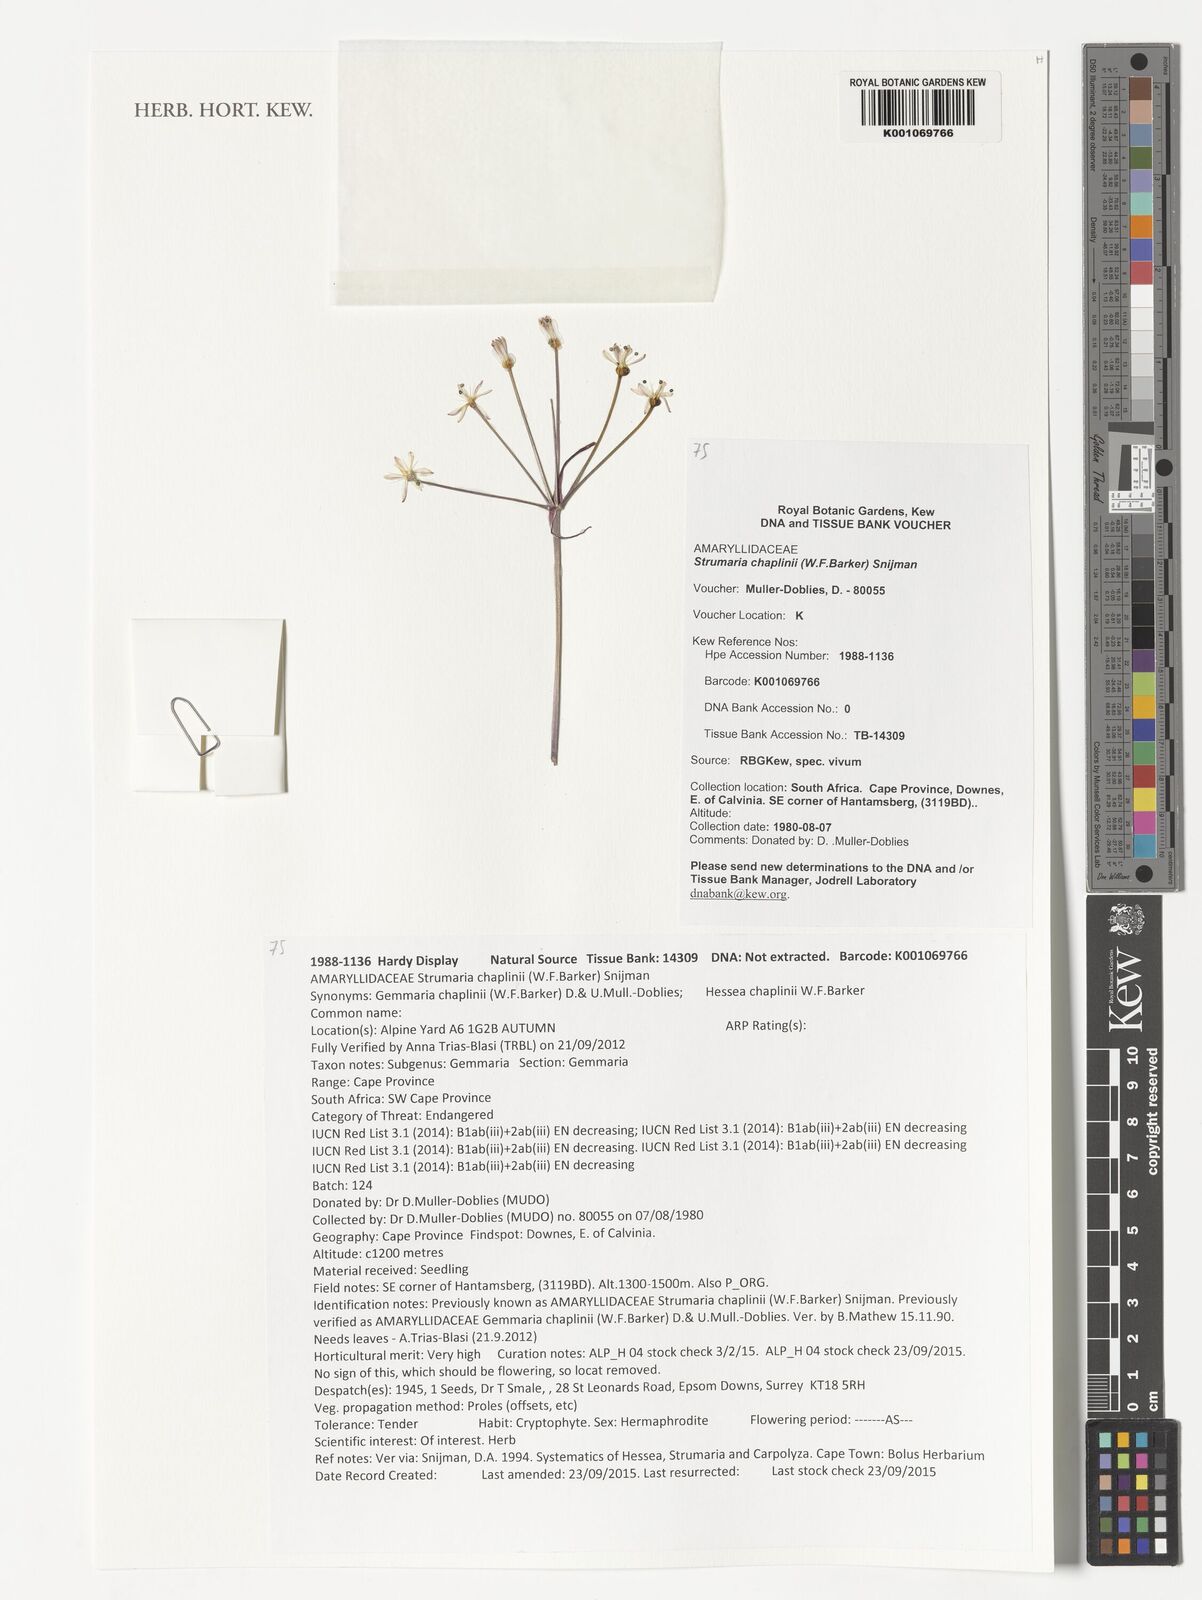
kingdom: Plantae
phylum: Tracheophyta
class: Liliopsida
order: Asparagales
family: Amaryllidaceae
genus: Strumaria
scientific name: Strumaria chaplinii
